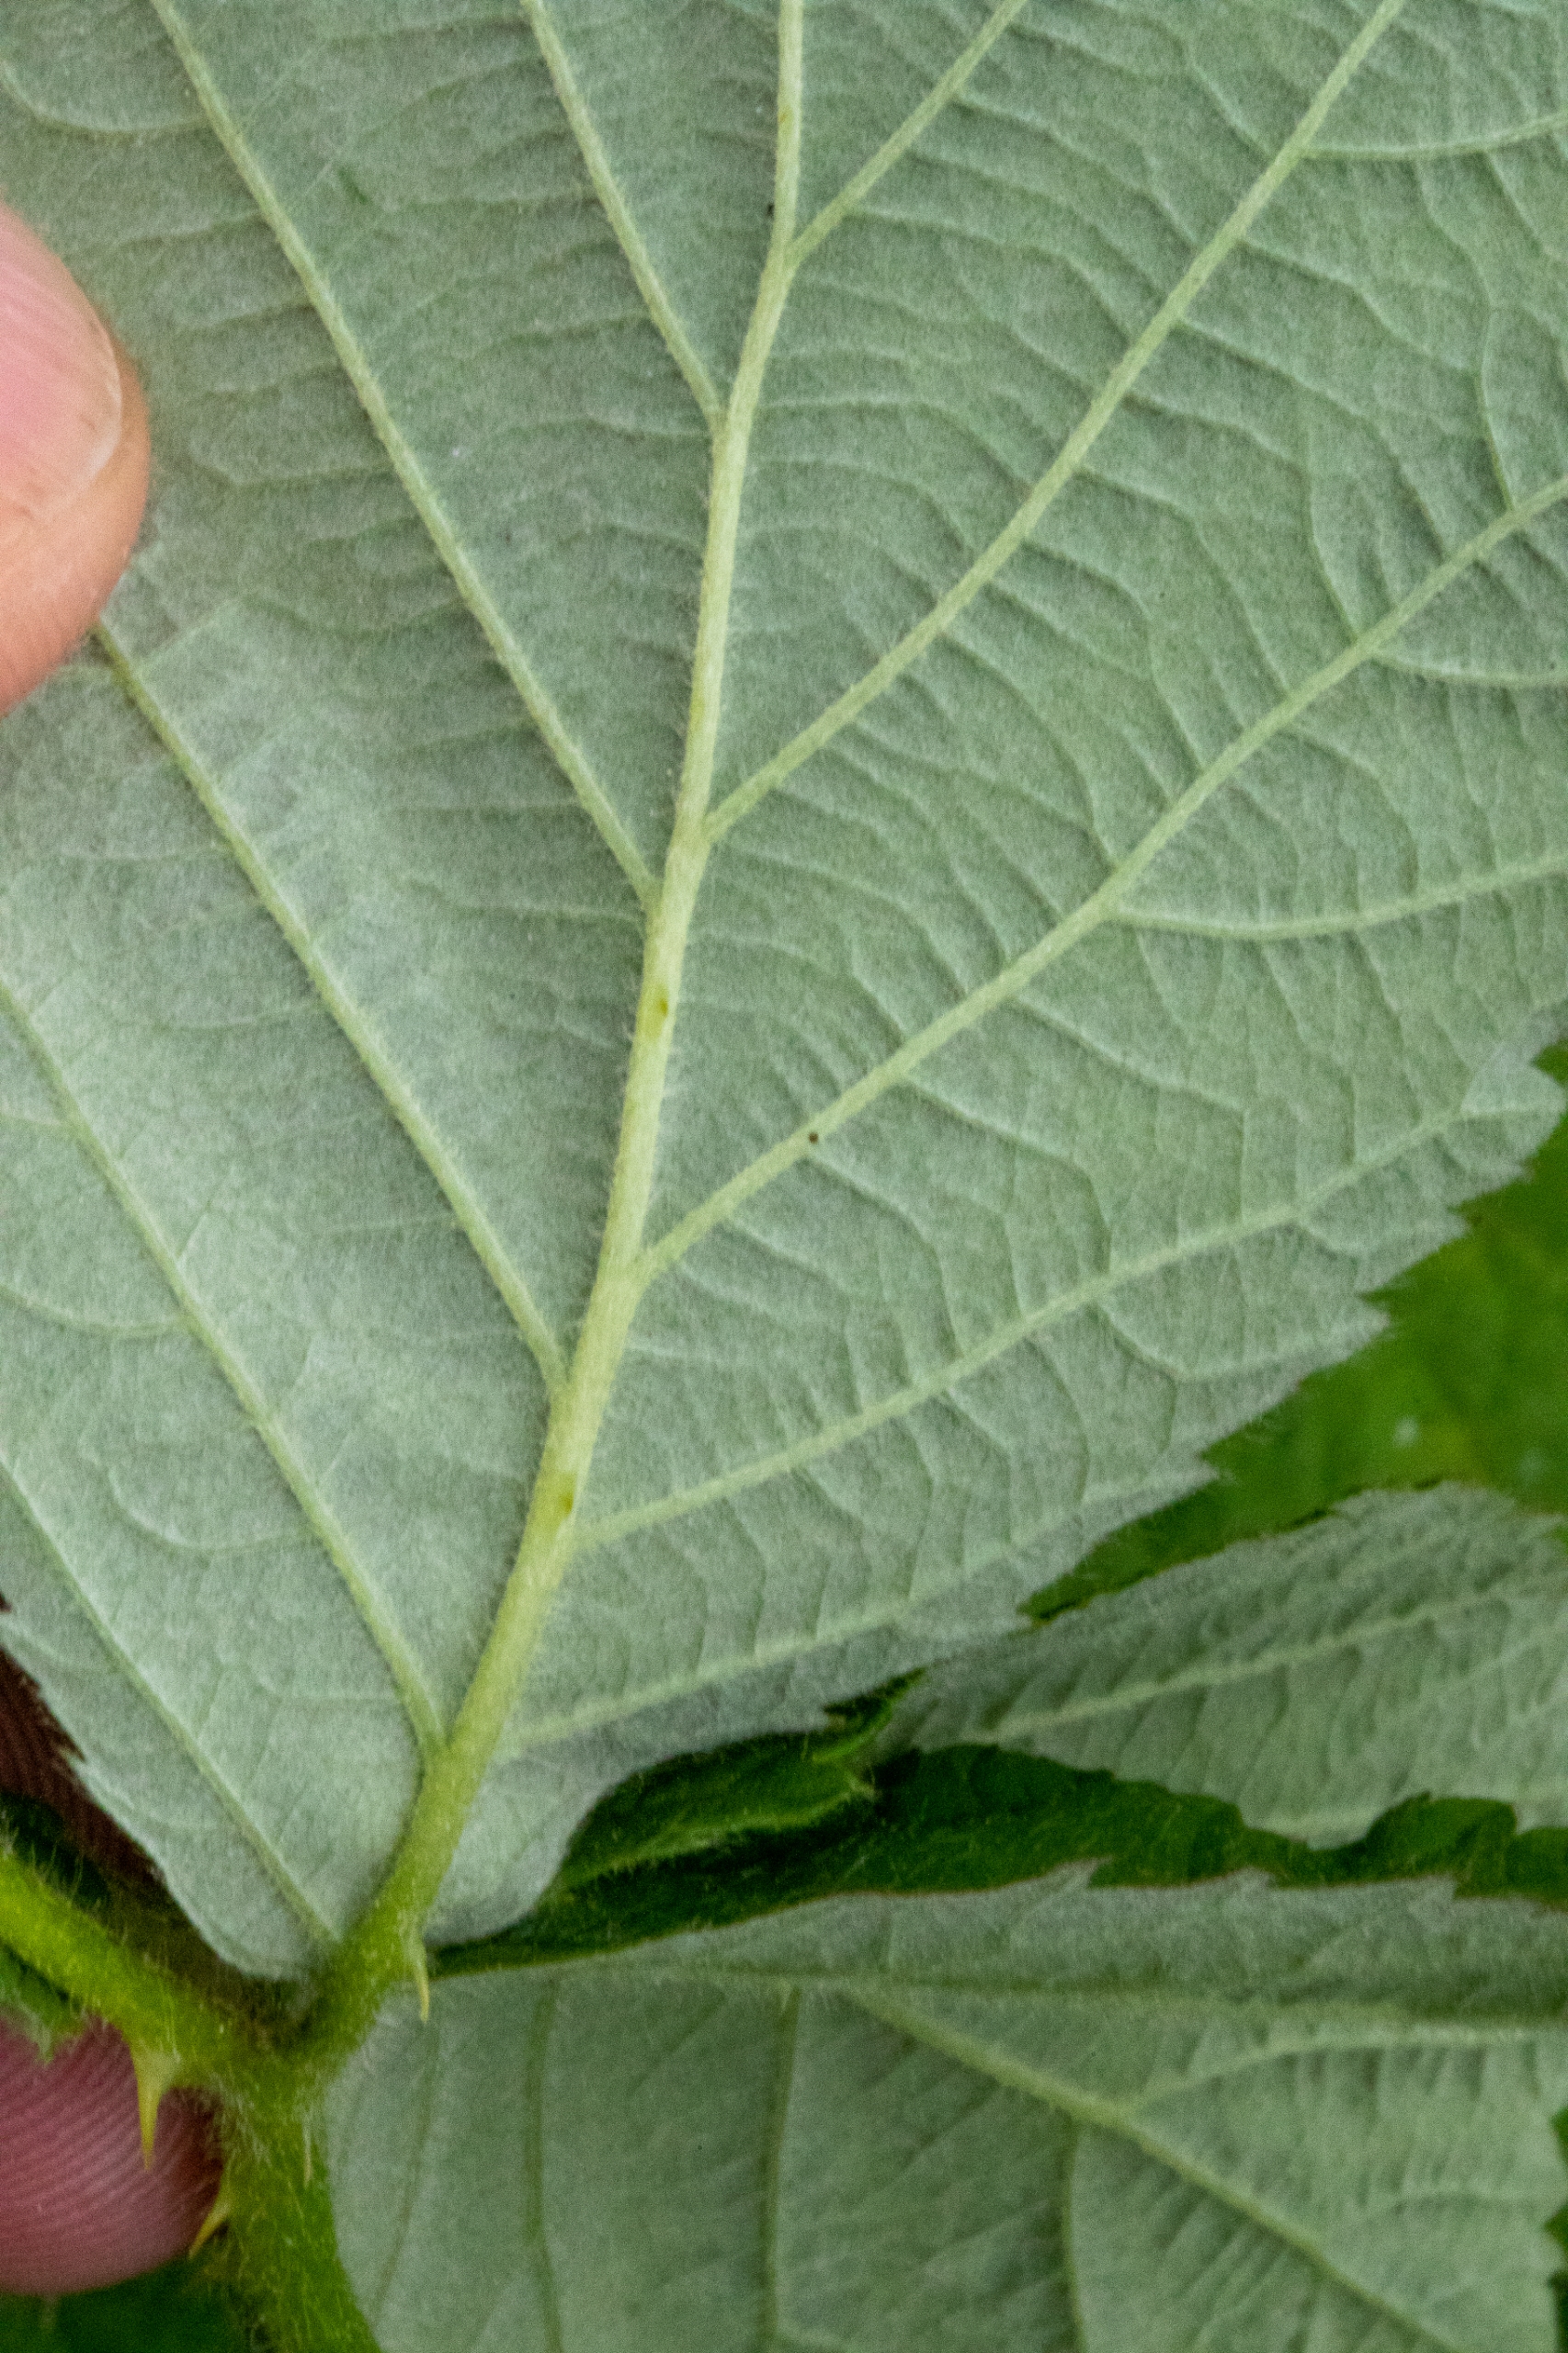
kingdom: Plantae
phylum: Tracheophyta
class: Magnoliopsida
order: Rosales
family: Rosaceae
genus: Rubus
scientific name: Rubus armeniacus
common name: Armensk brombær
